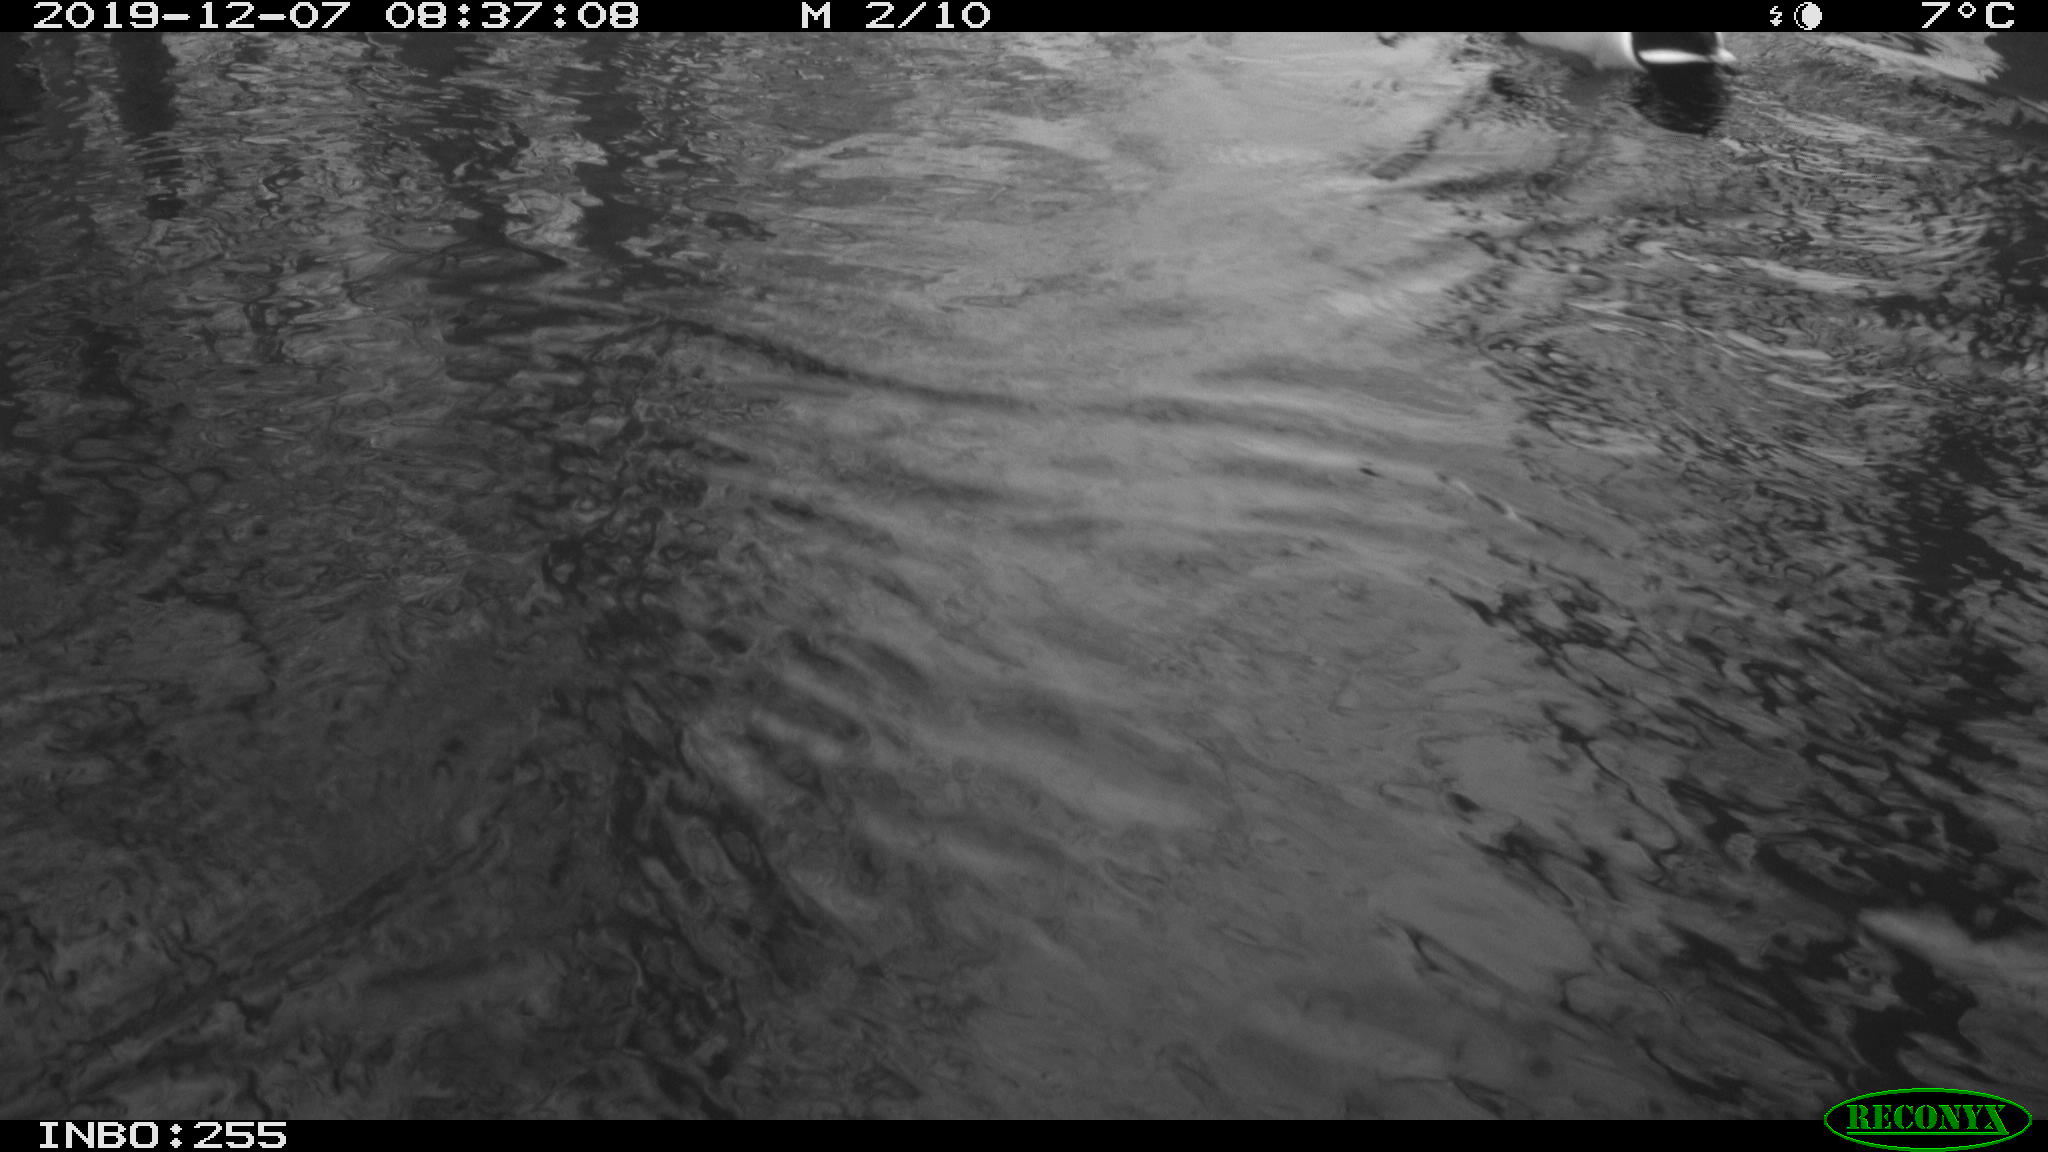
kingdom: Animalia
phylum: Chordata
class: Aves
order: Anseriformes
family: Anatidae
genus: Anas
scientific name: Anas platyrhynchos
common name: Mallard
